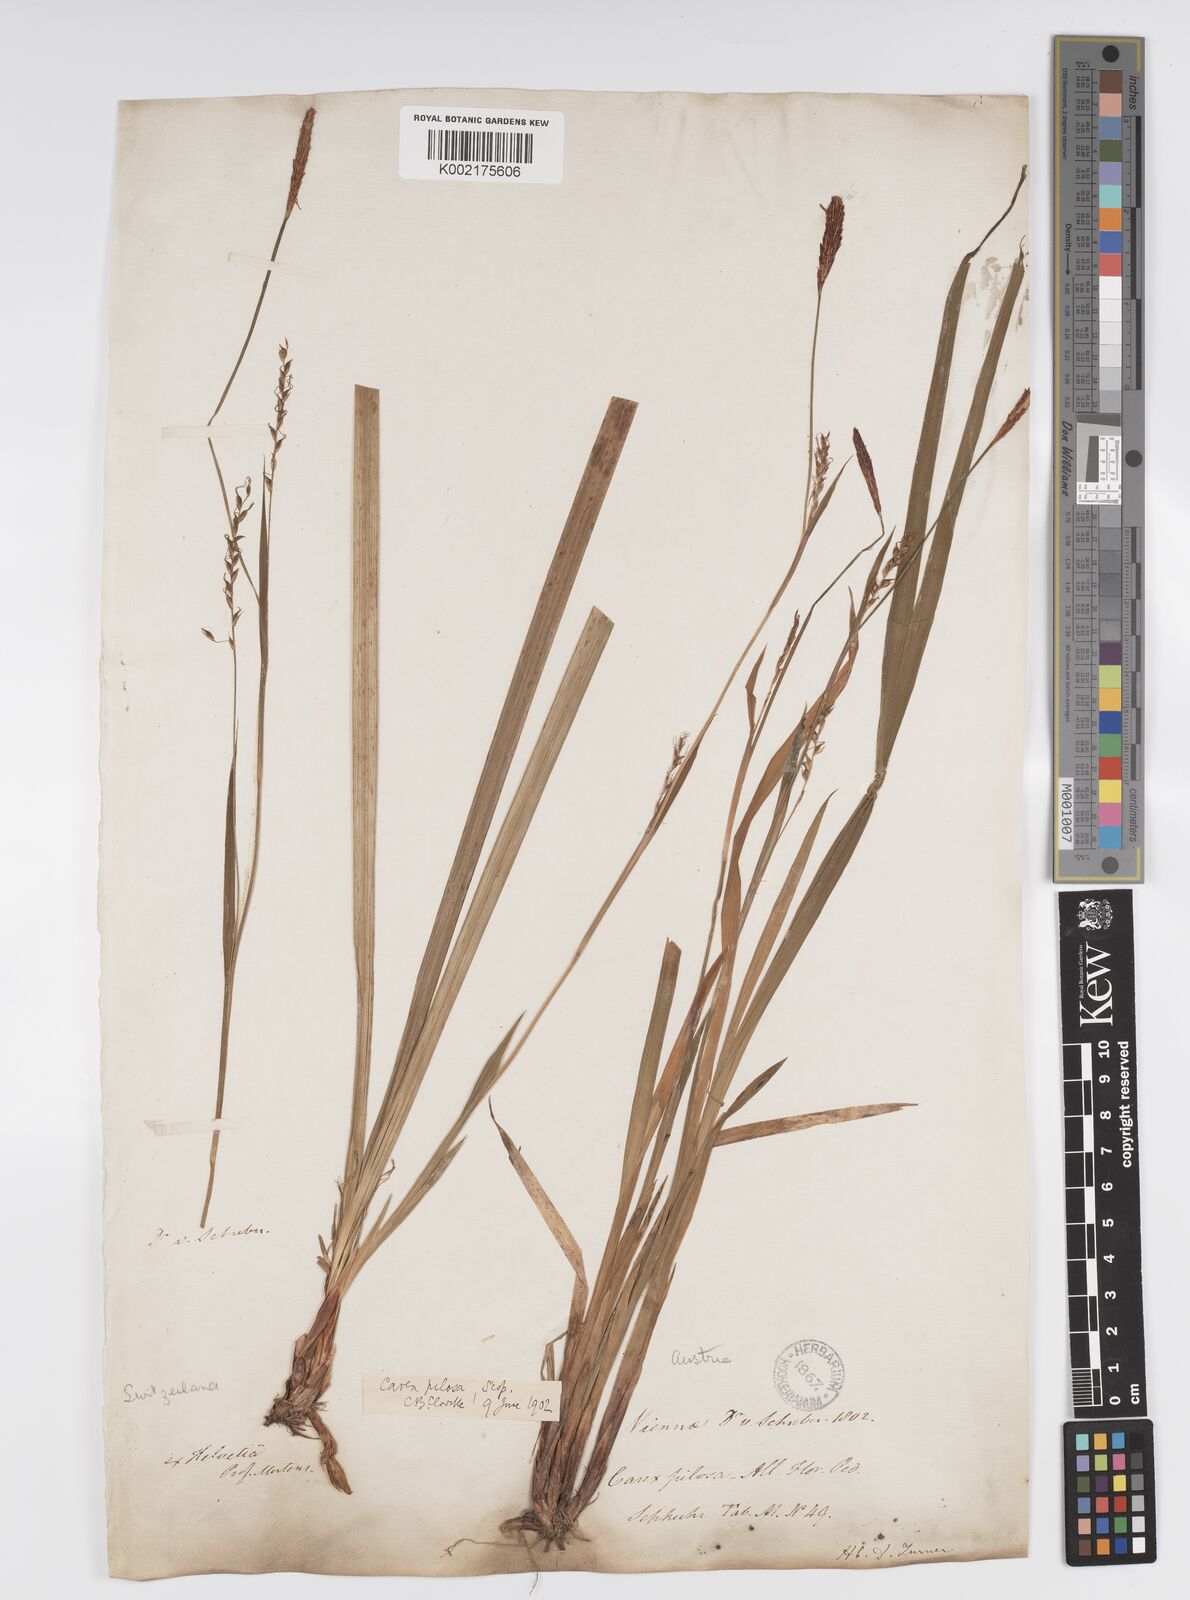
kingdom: Plantae
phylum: Tracheophyta
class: Liliopsida
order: Poales
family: Cyperaceae
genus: Carex
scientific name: Carex pilosa
